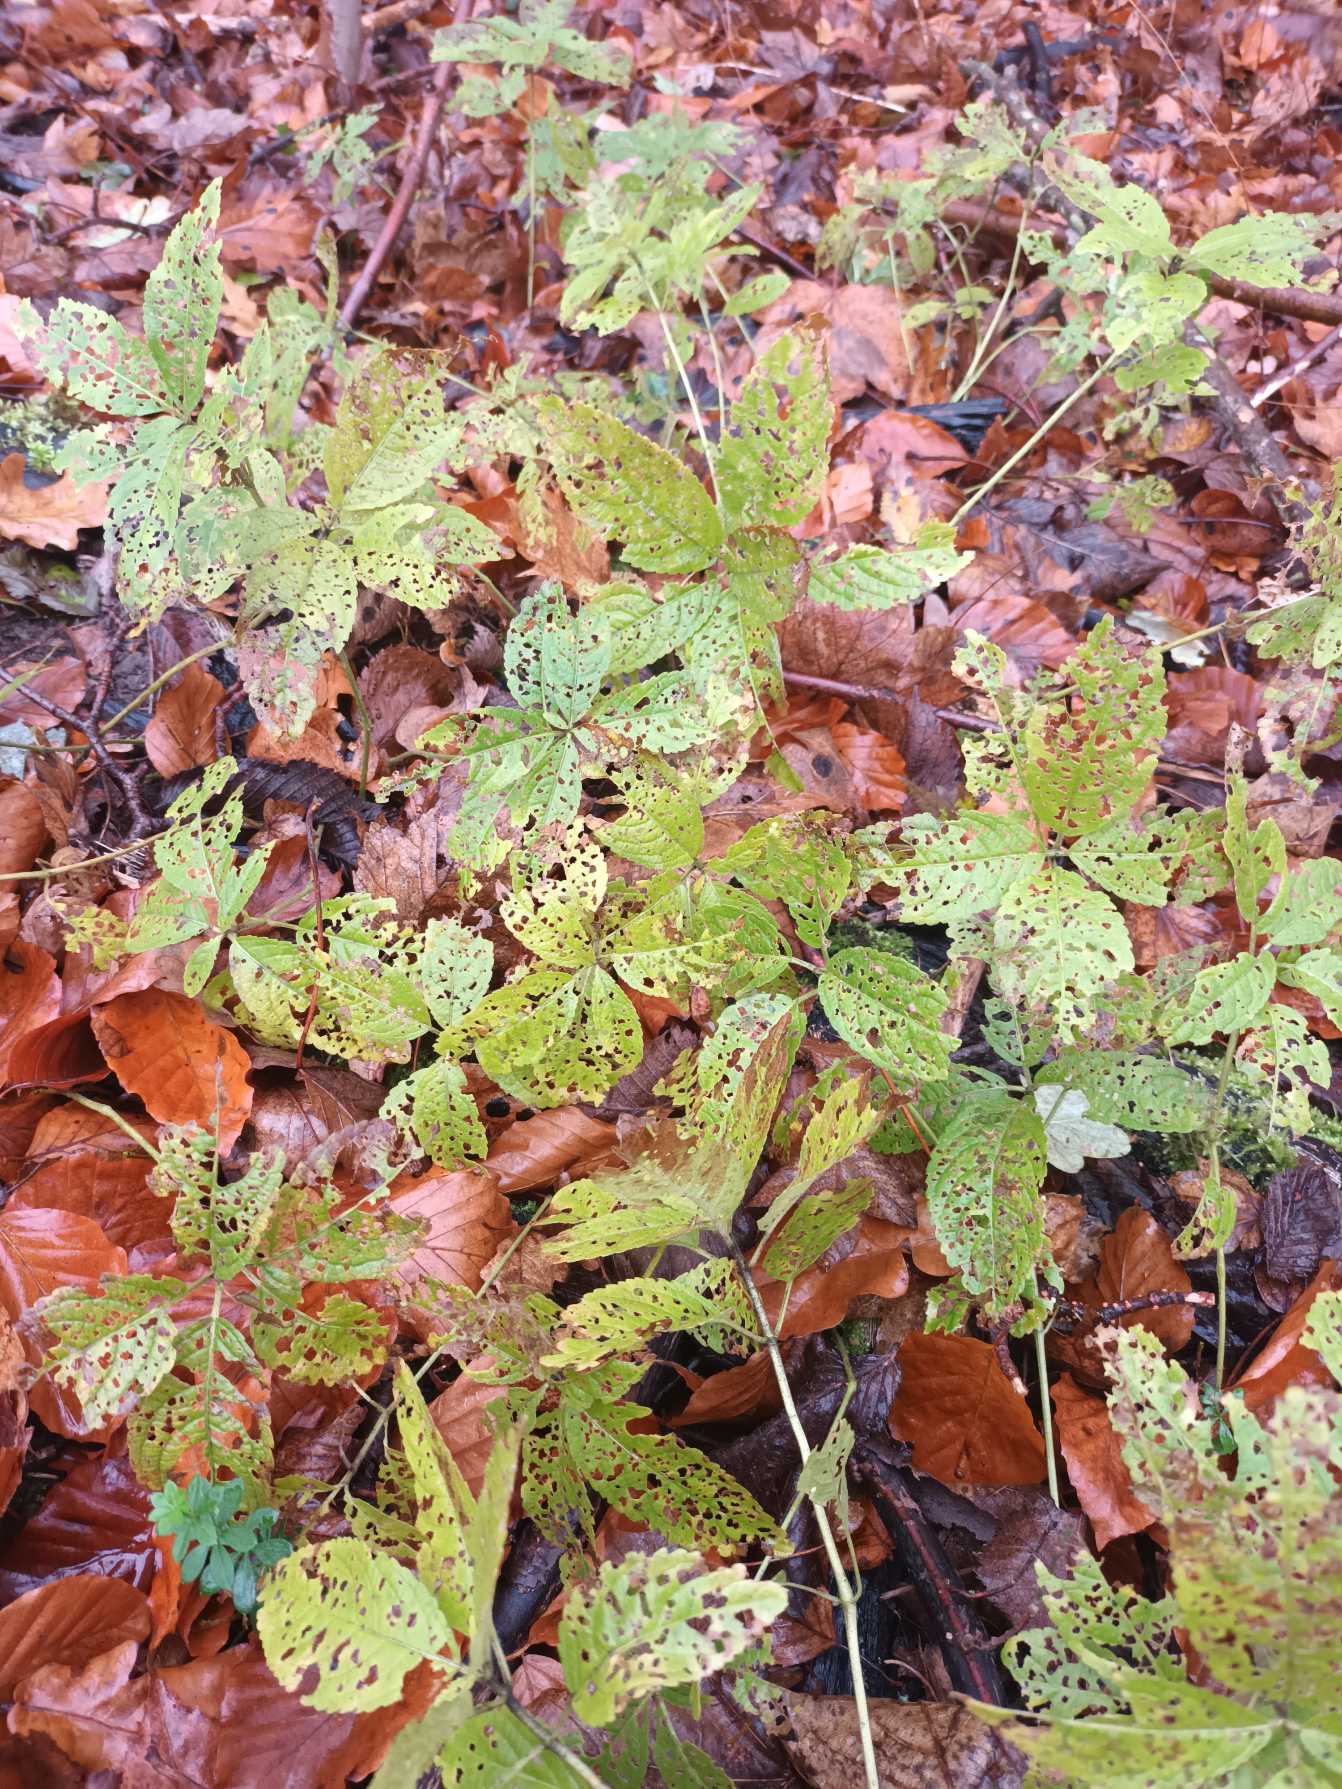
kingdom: Plantae
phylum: Tracheophyta
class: Magnoliopsida
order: Malpighiales
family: Euphorbiaceae
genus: Mercurialis
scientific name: Mercurialis perennis
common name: Almindelig bingelurt
